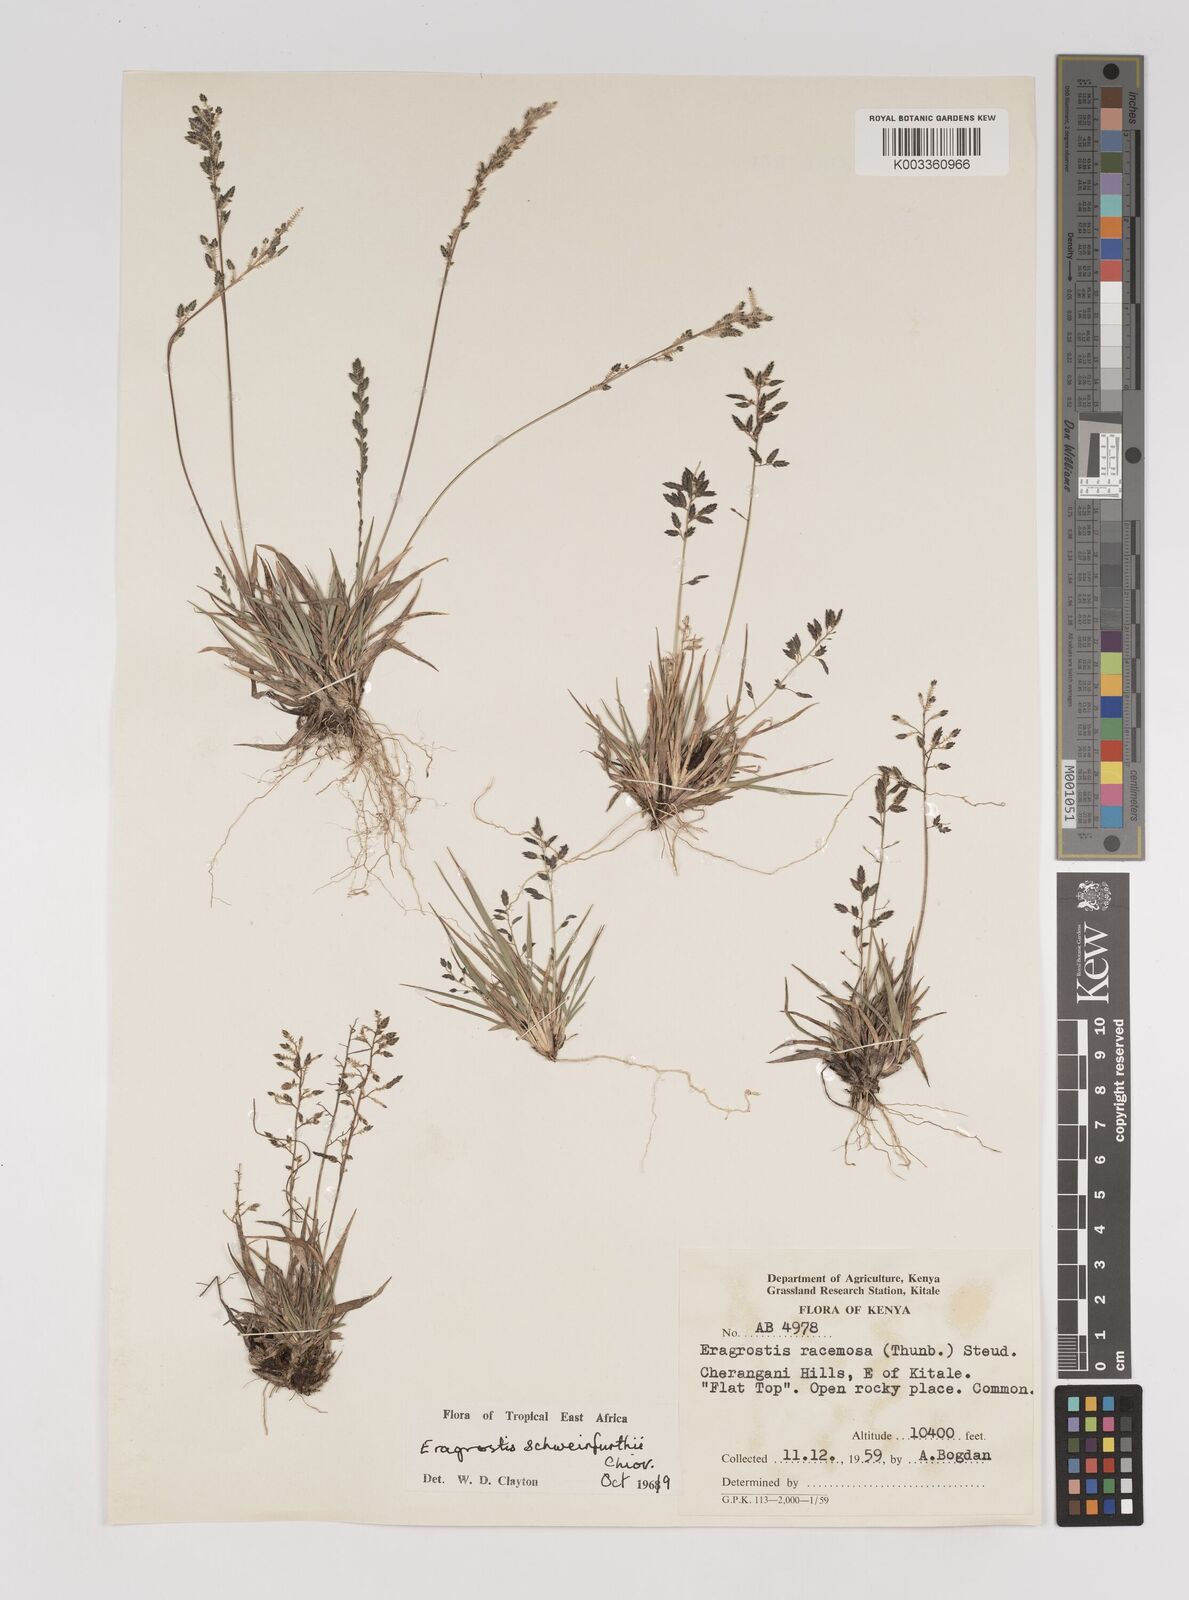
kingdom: Plantae
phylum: Tracheophyta
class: Liliopsida
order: Poales
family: Poaceae
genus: Eragrostis
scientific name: Eragrostis schweinfurthii
